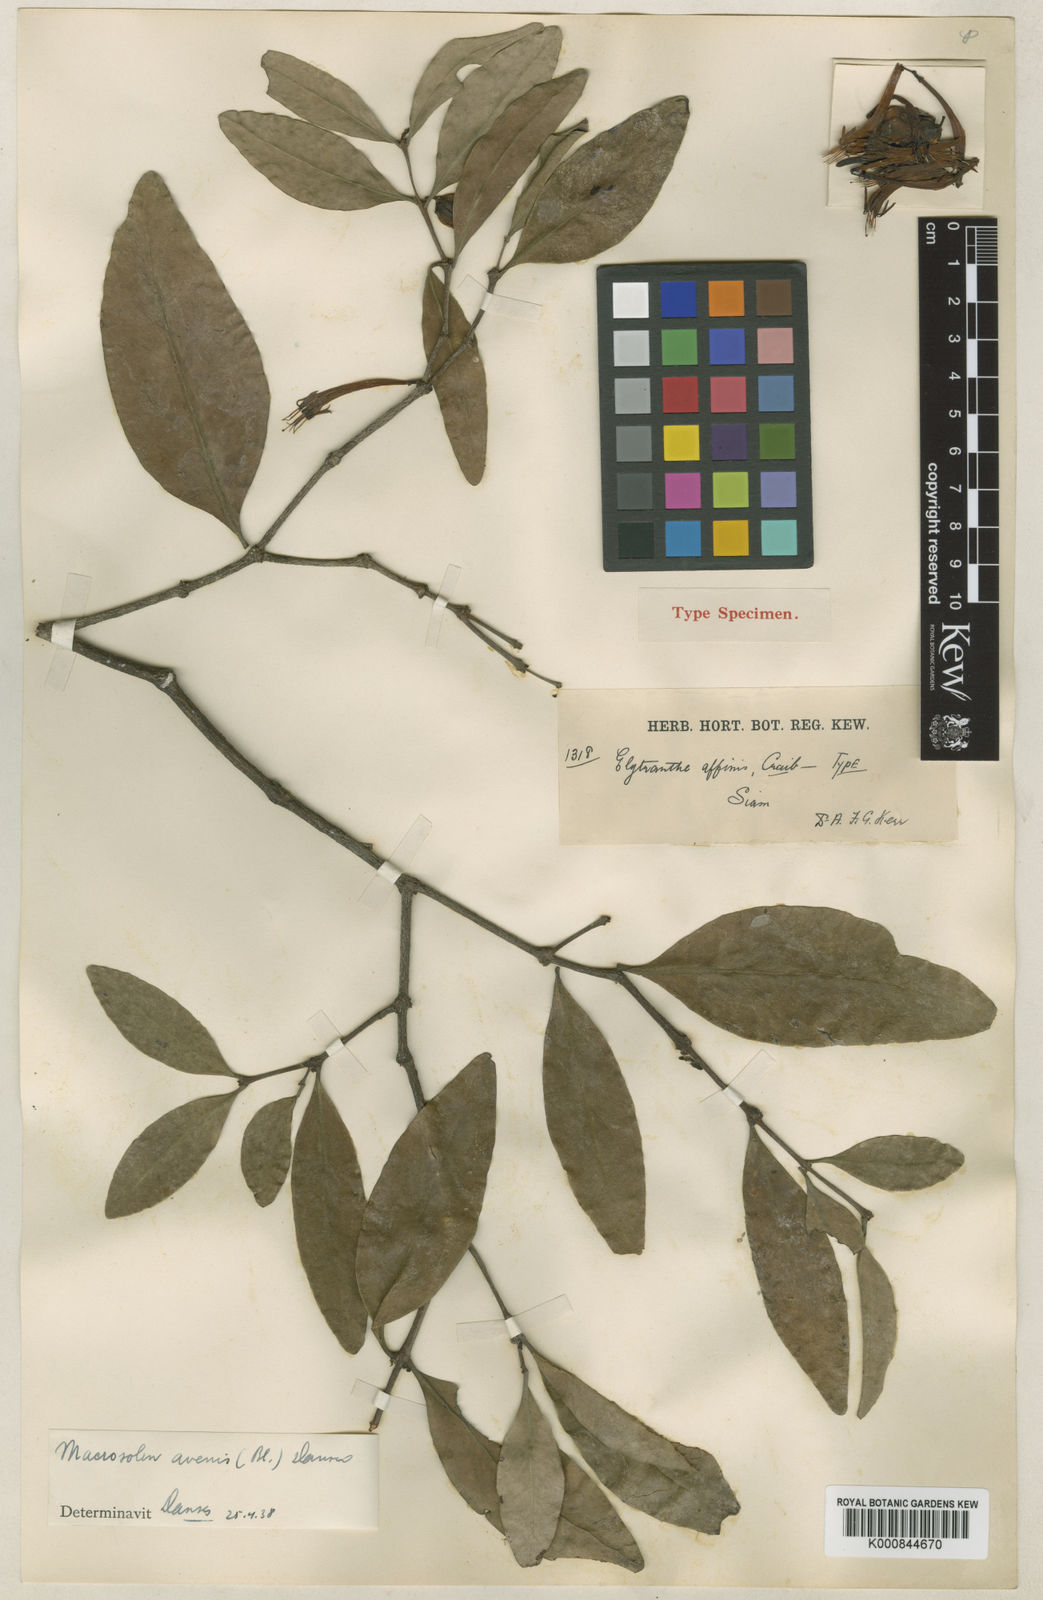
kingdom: Plantae
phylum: Tracheophyta
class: Magnoliopsida
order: Santalales
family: Loranthaceae
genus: Macrosolen
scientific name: Macrosolen
